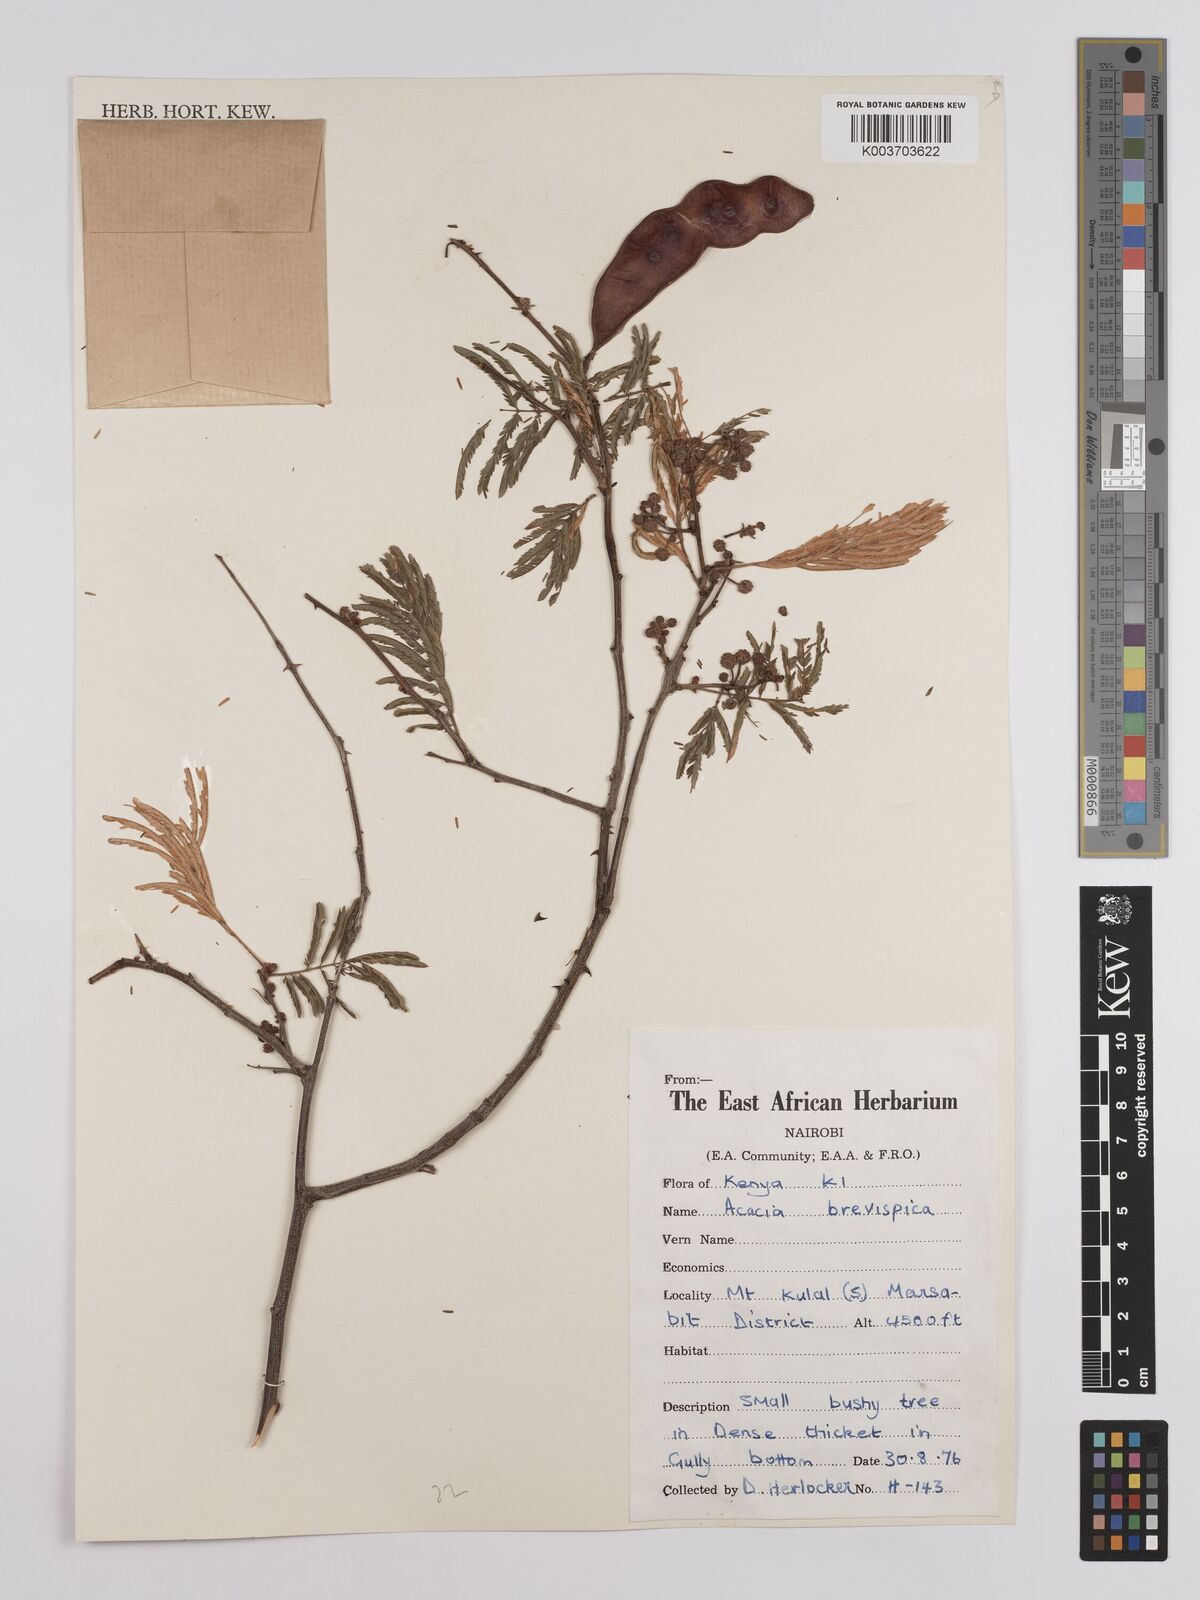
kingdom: Plantae
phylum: Tracheophyta
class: Magnoliopsida
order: Fabales
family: Fabaceae
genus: Senegalia
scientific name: Senegalia brevispica
